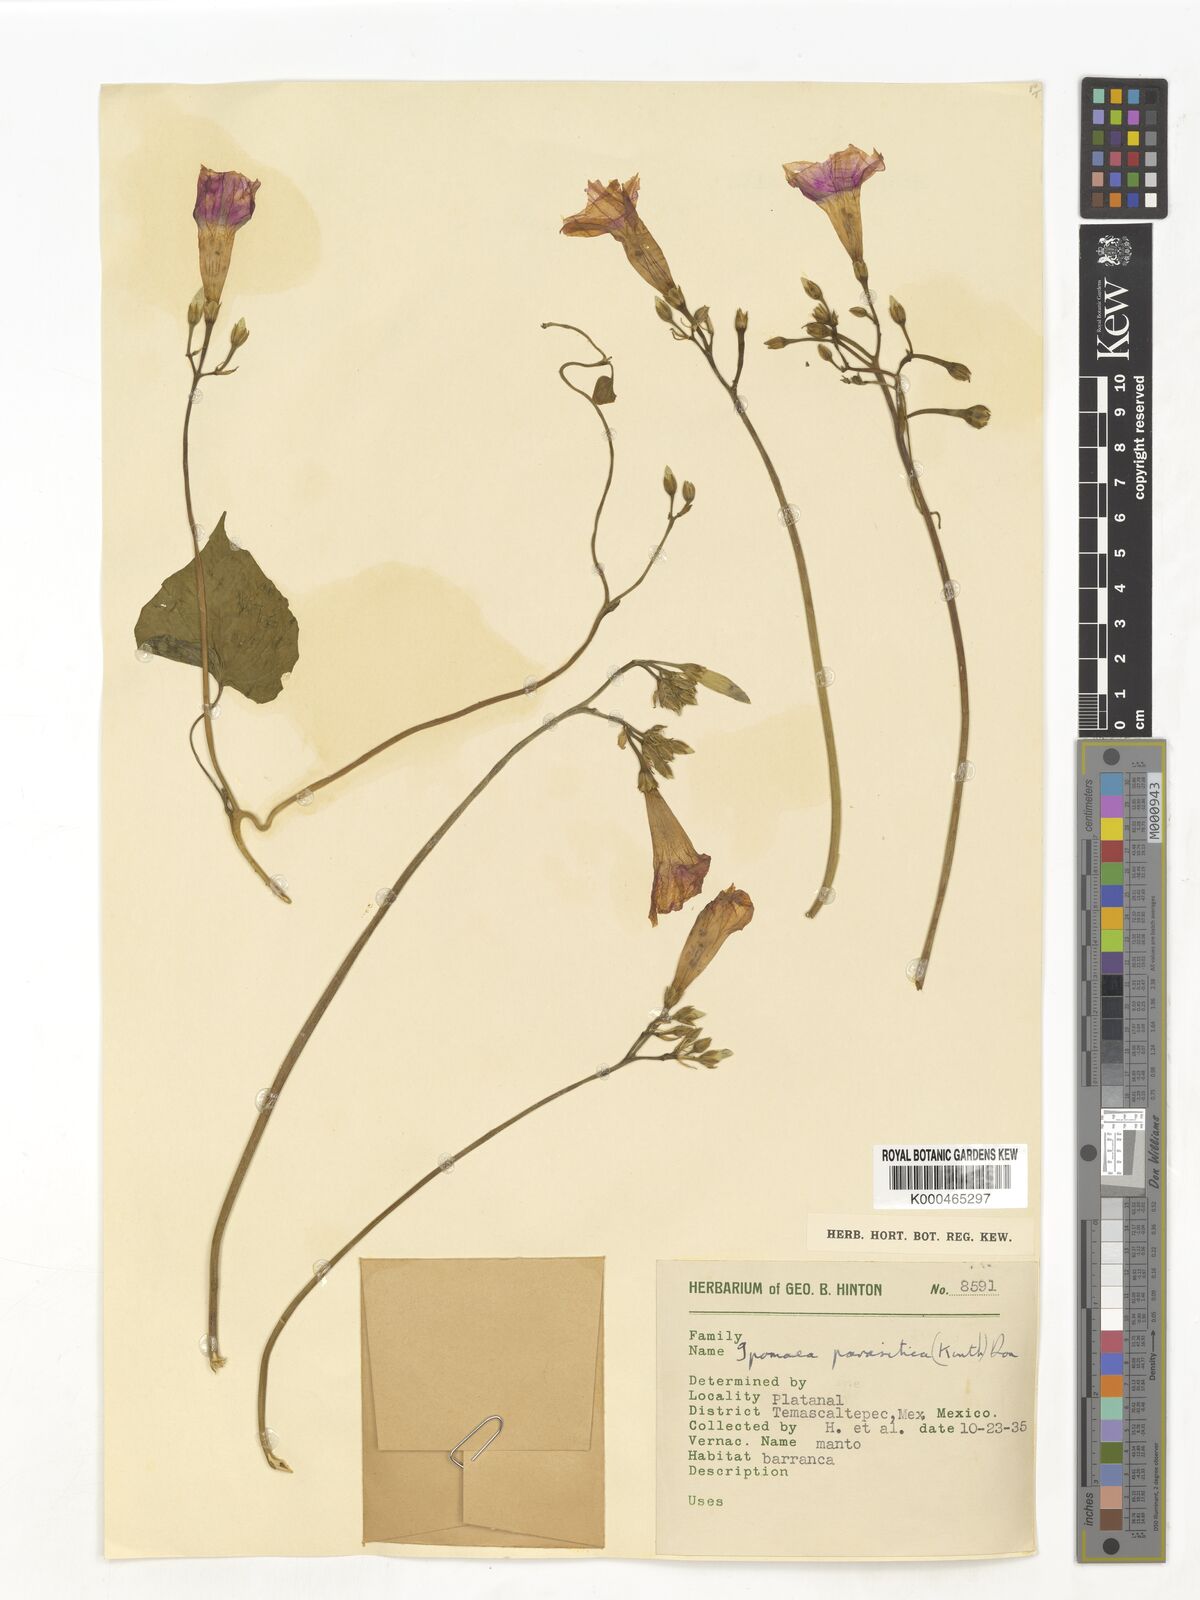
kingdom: Plantae
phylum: Tracheophyta
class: Magnoliopsida
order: Solanales
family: Convolvulaceae
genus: Ipomoea
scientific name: Ipomoea parasitica
